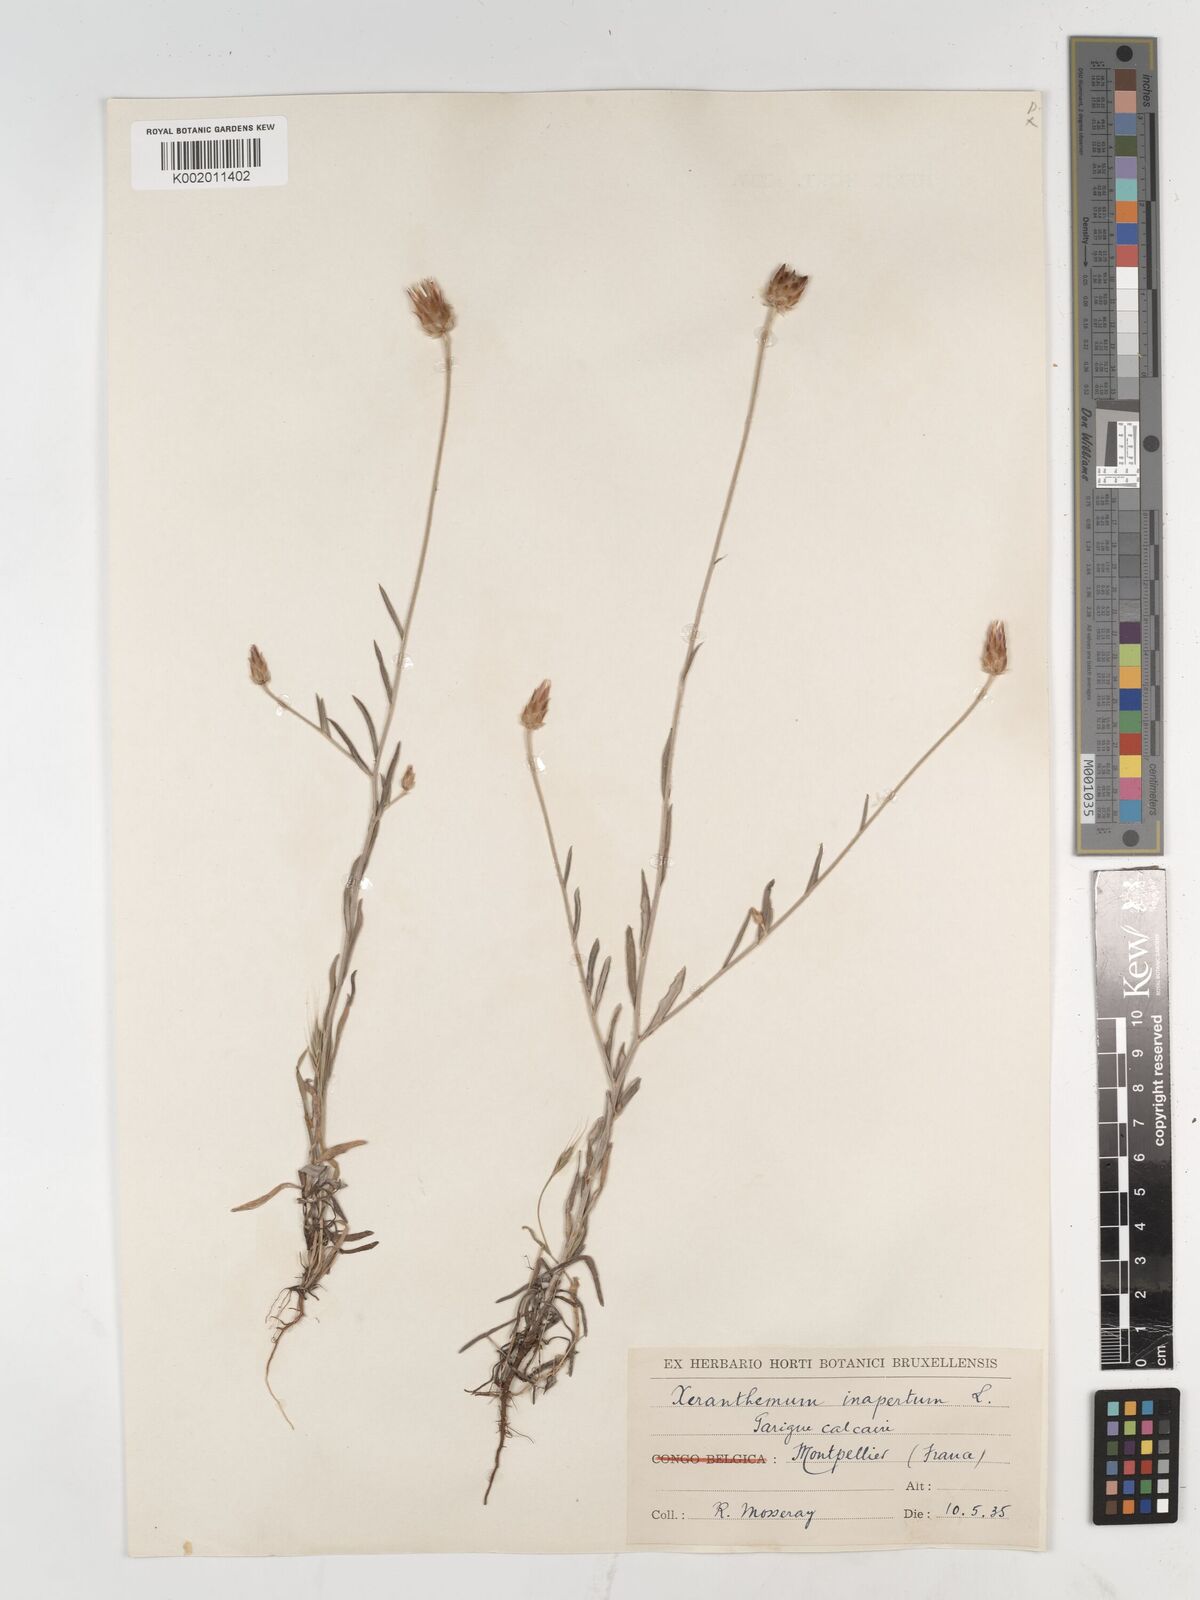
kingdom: Plantae
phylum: Tracheophyta
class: Magnoliopsida
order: Asterales
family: Asteraceae
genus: Xeranthemum
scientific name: Xeranthemum inapertum
